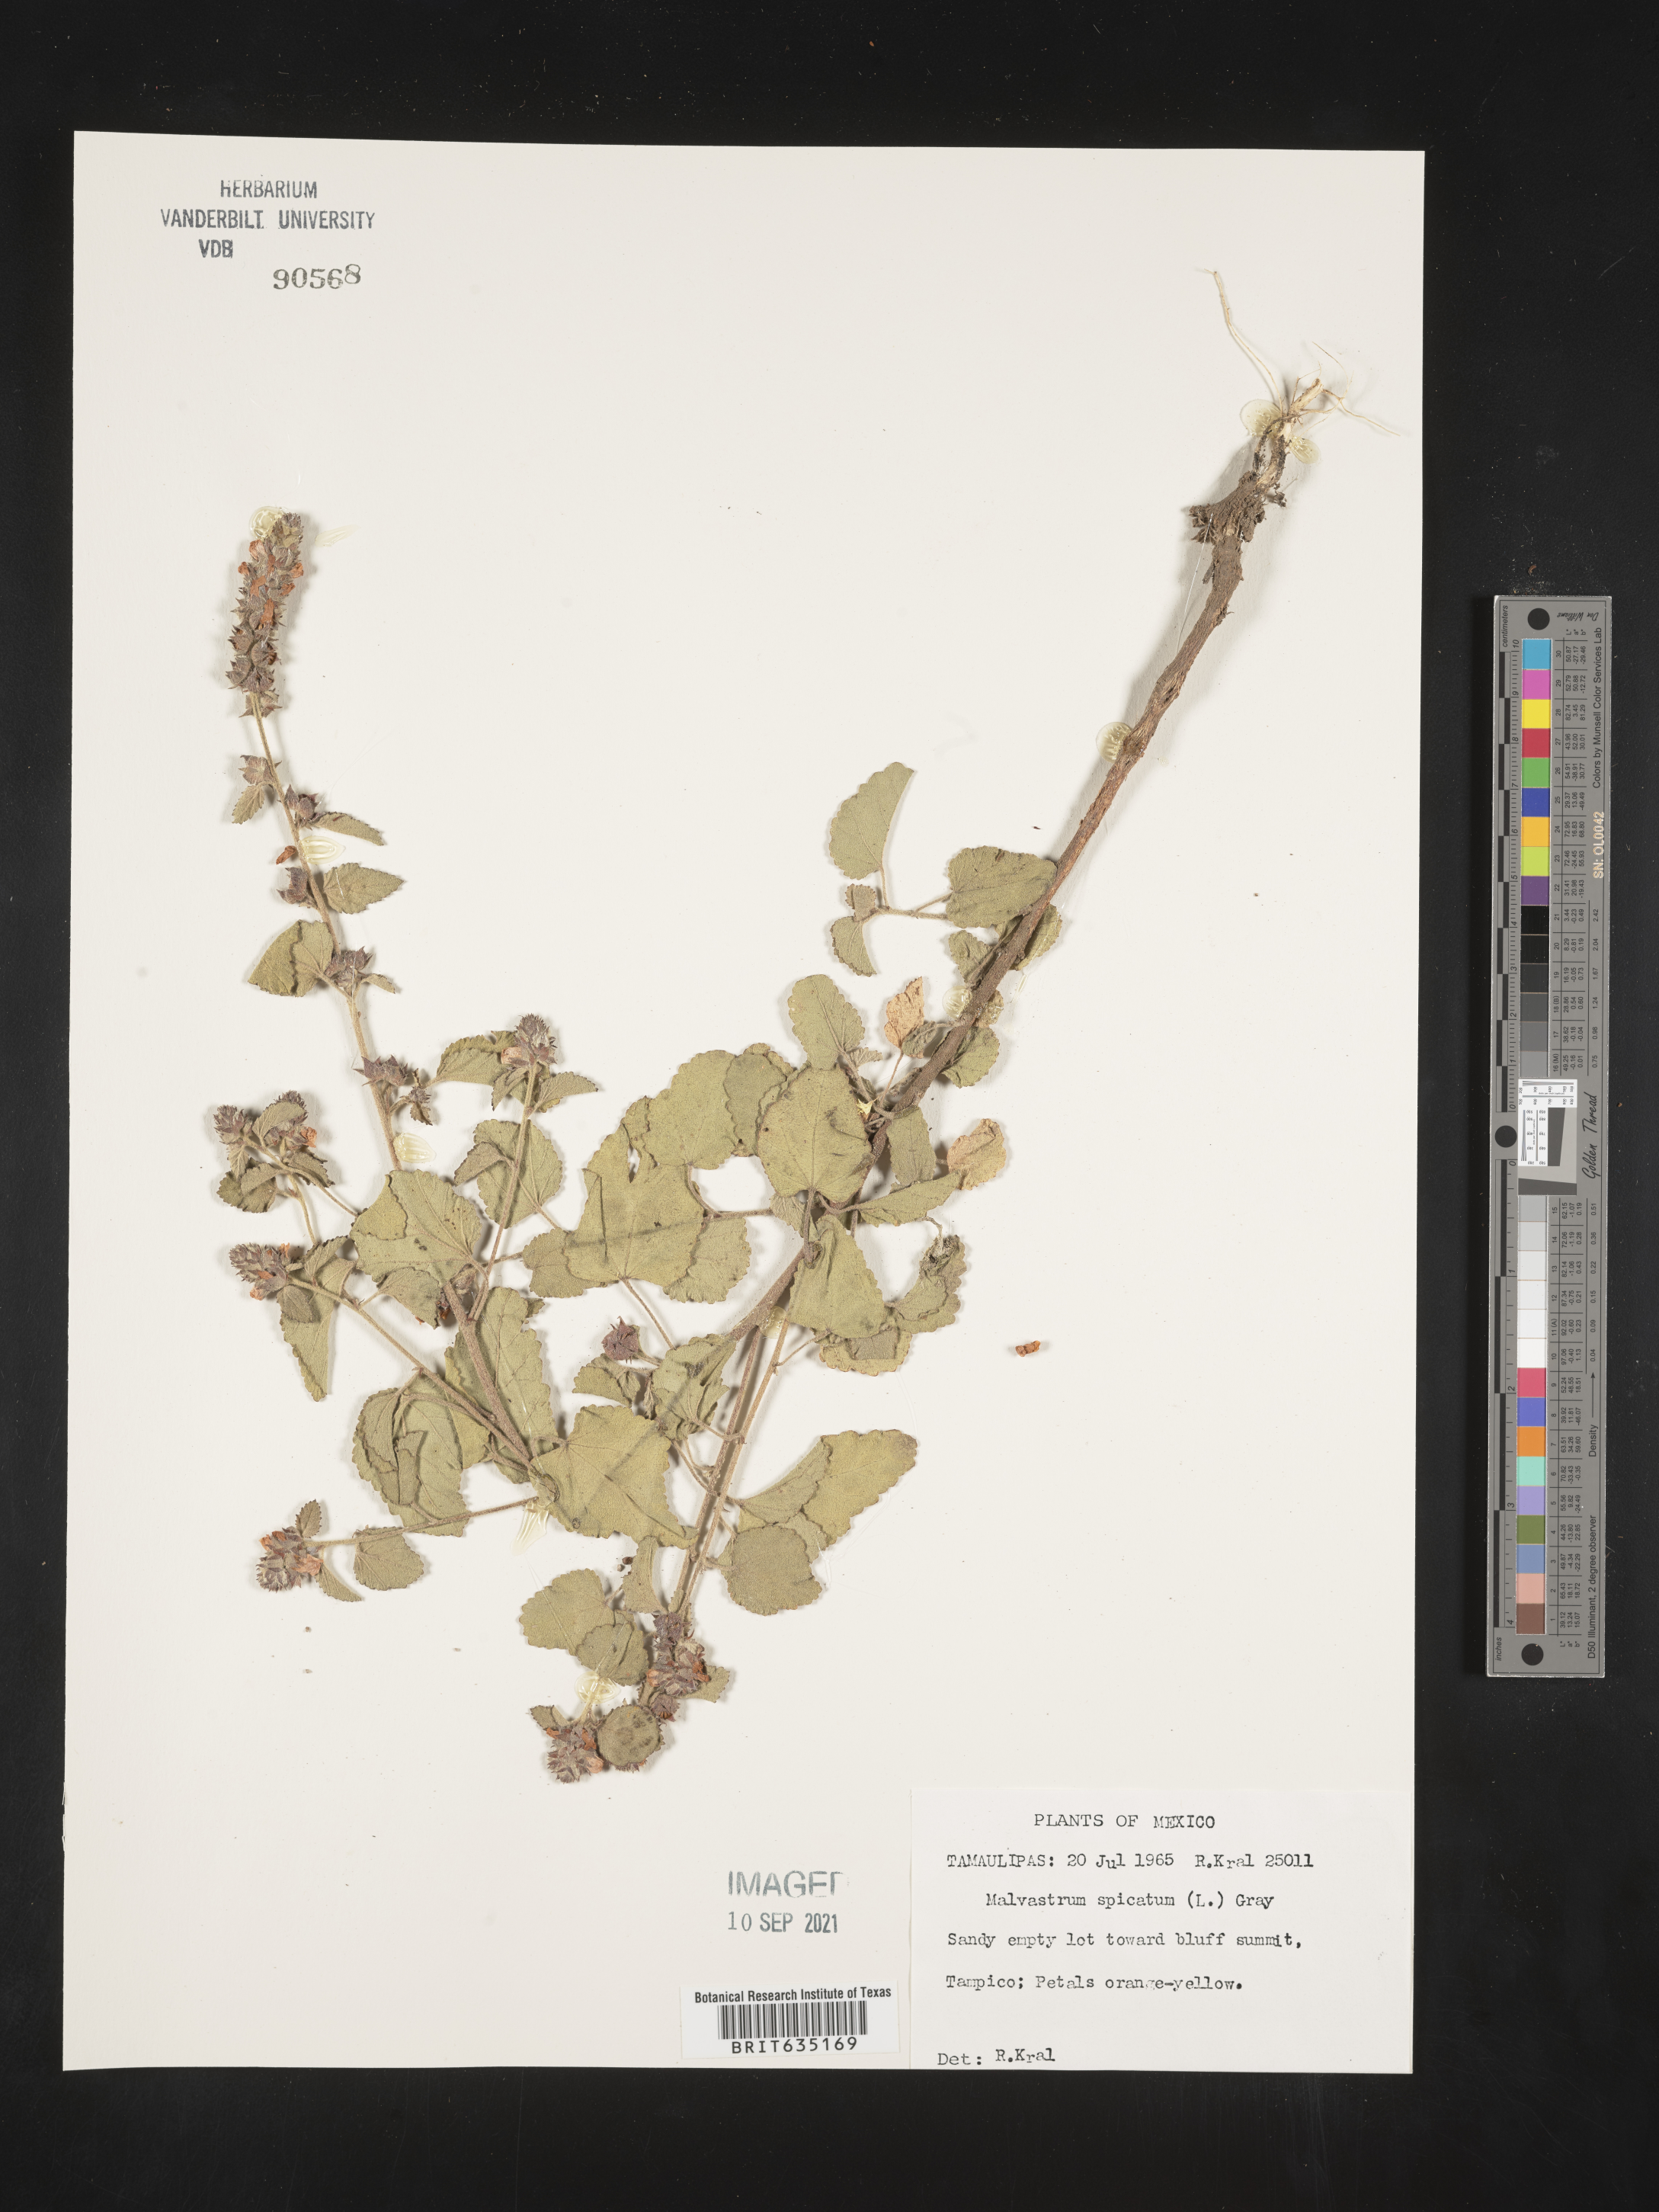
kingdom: Plantae
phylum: Tracheophyta
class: Magnoliopsida
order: Malvales
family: Malvaceae
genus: Malvastrum
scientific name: Malvastrum
